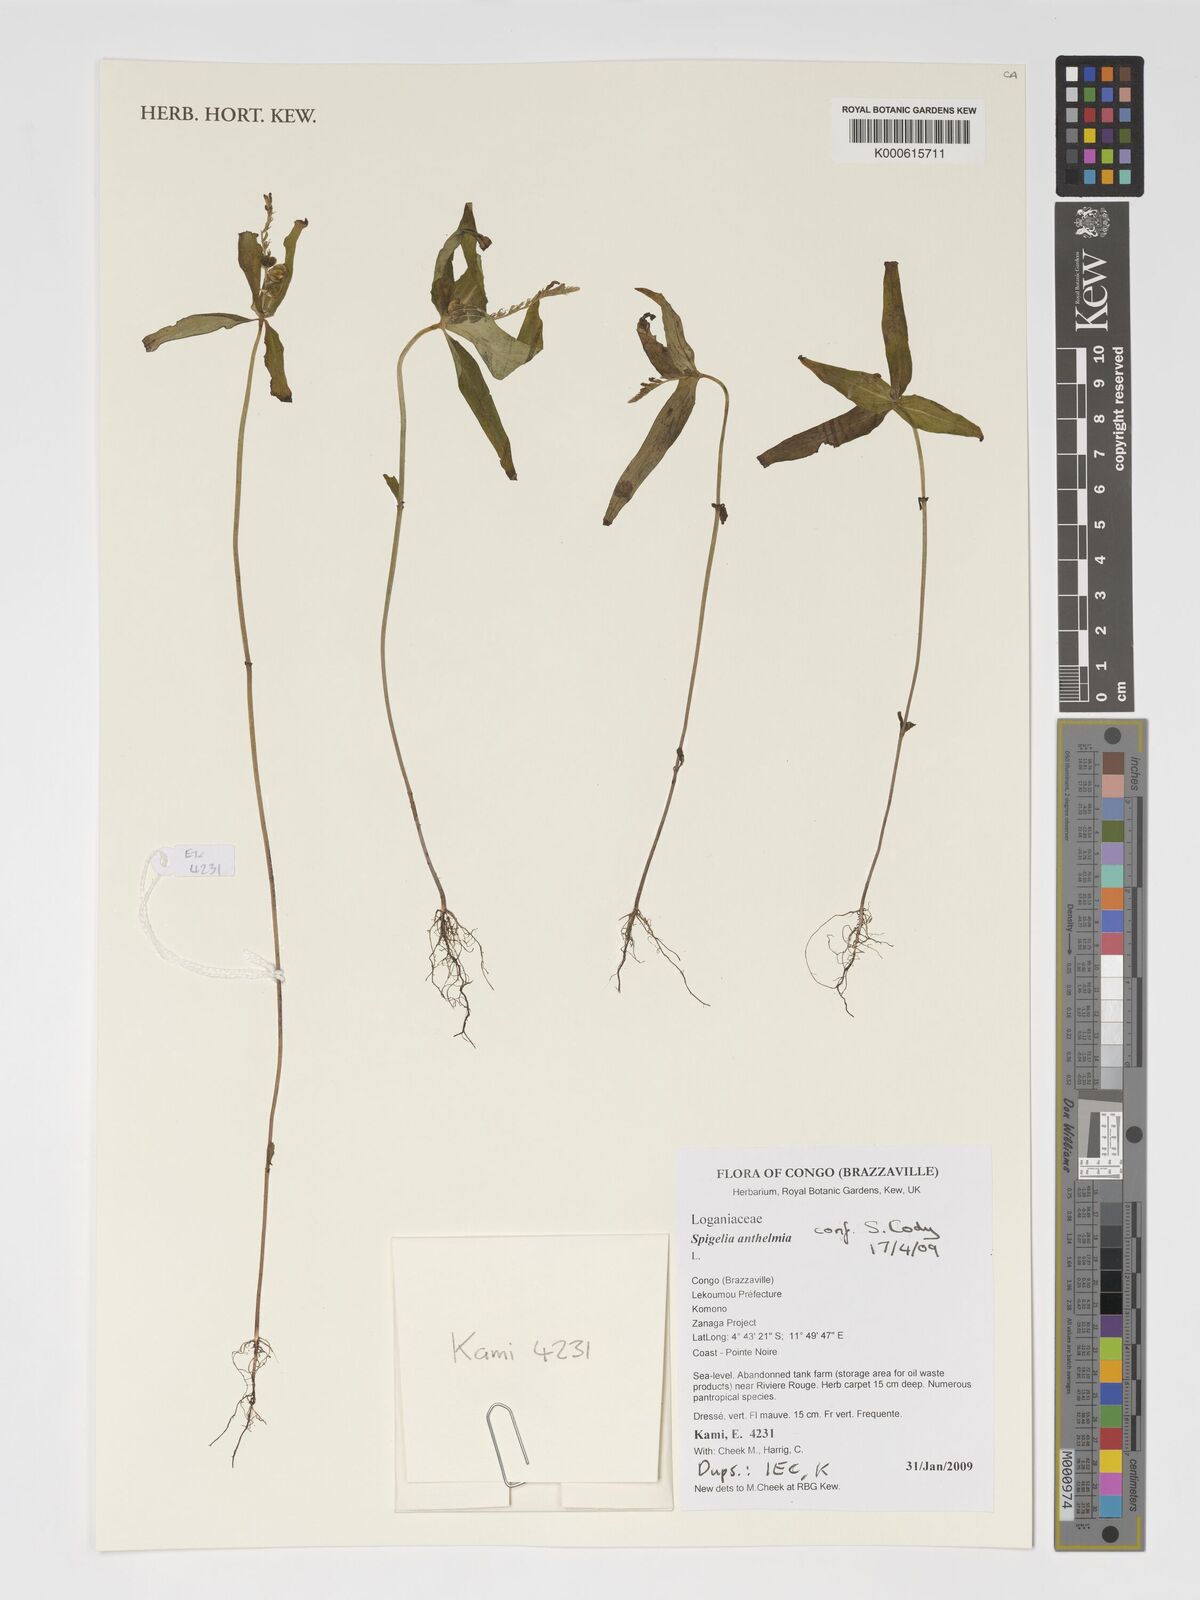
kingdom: Plantae
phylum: Tracheophyta
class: Magnoliopsida
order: Gentianales
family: Loganiaceae
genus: Spigelia
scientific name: Spigelia anthelmia
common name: West indian-pink
